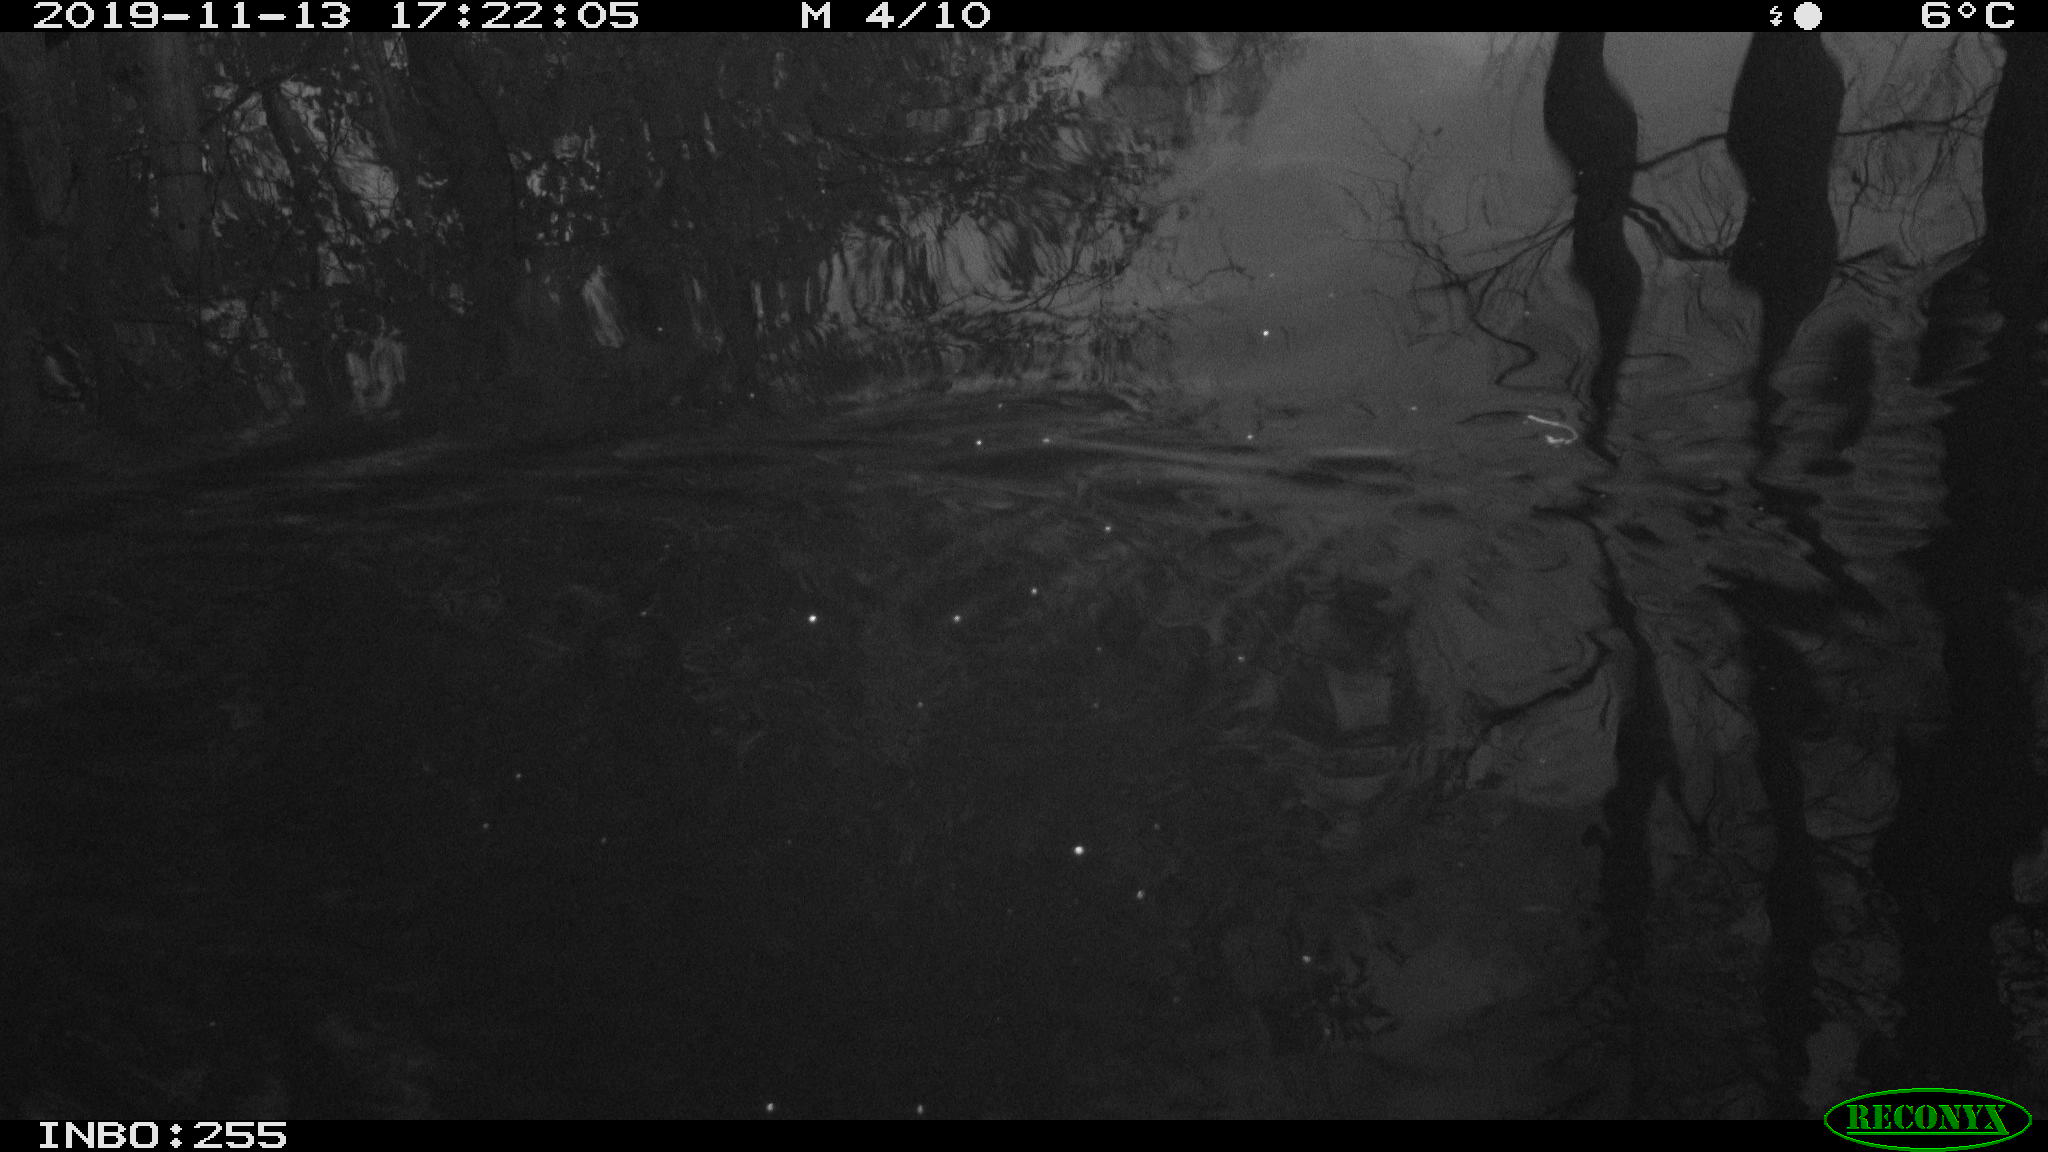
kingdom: Animalia
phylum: Chordata
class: Mammalia
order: Rodentia
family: Muridae
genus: Rattus
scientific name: Rattus norvegicus
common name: Brown rat
